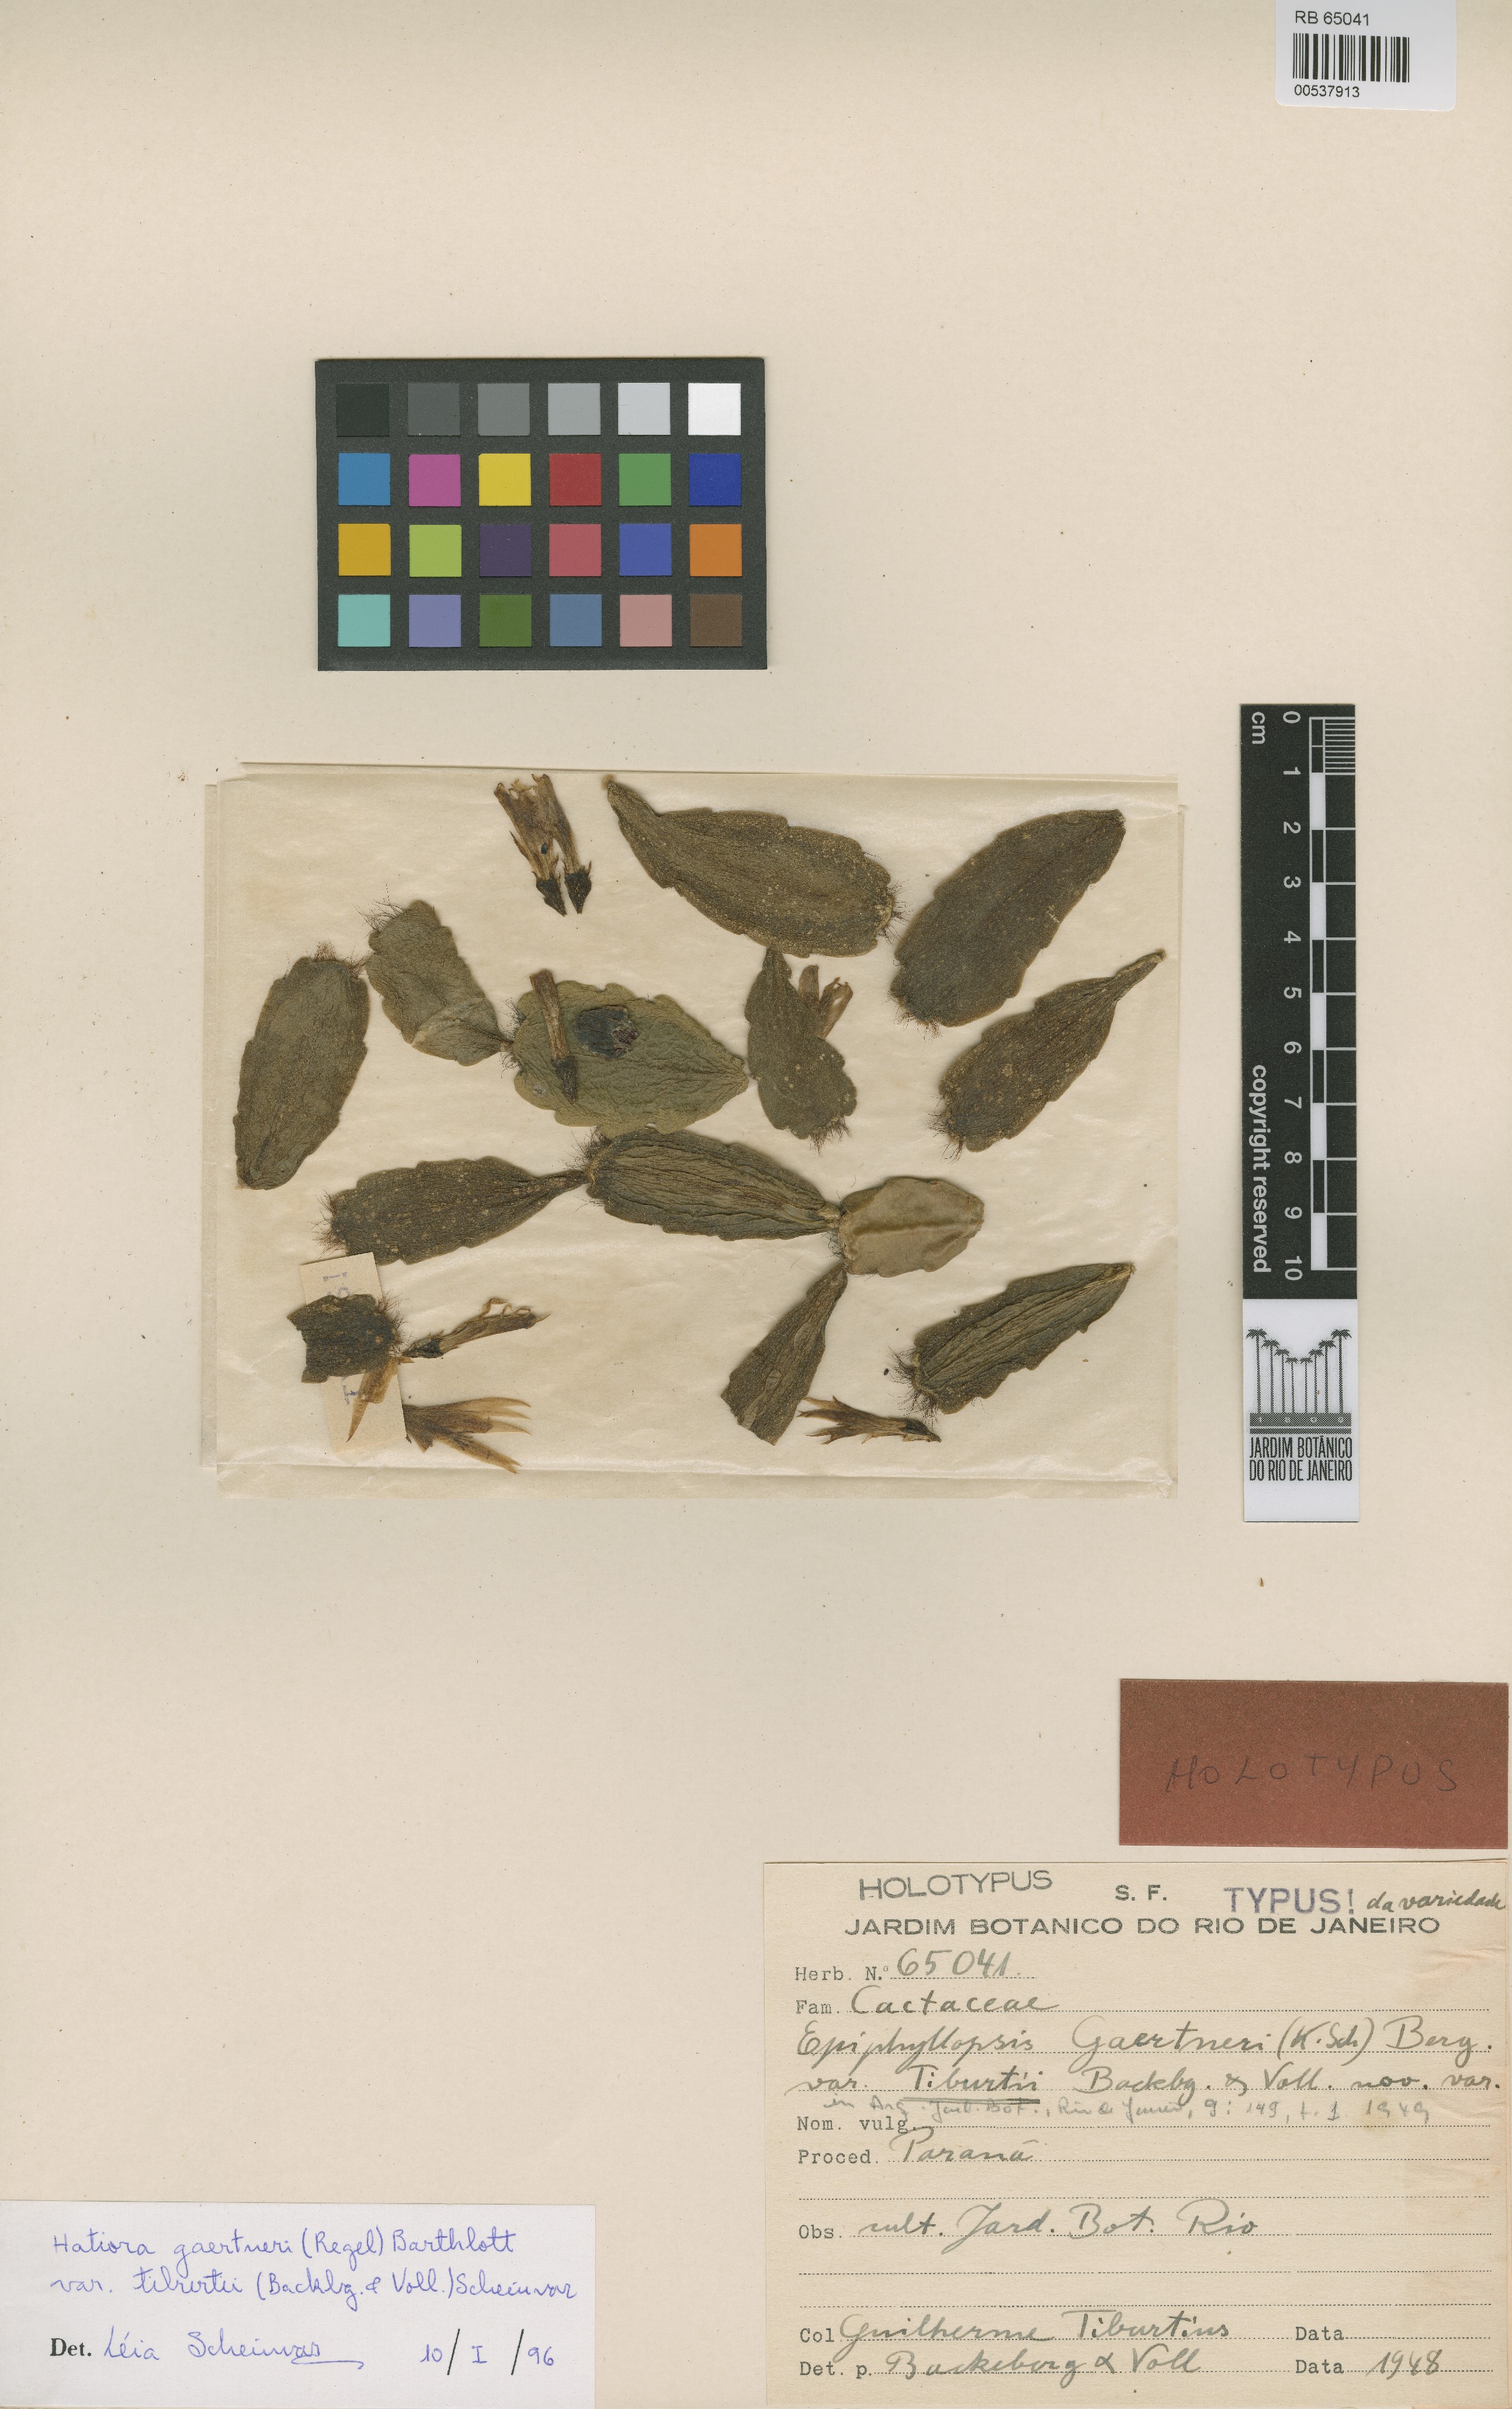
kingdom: Plantae
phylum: Tracheophyta
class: Magnoliopsida
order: Caryophyllales
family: Cactaceae
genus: Hatiora
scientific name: Hatiora gaertneri
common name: Easter cactus
